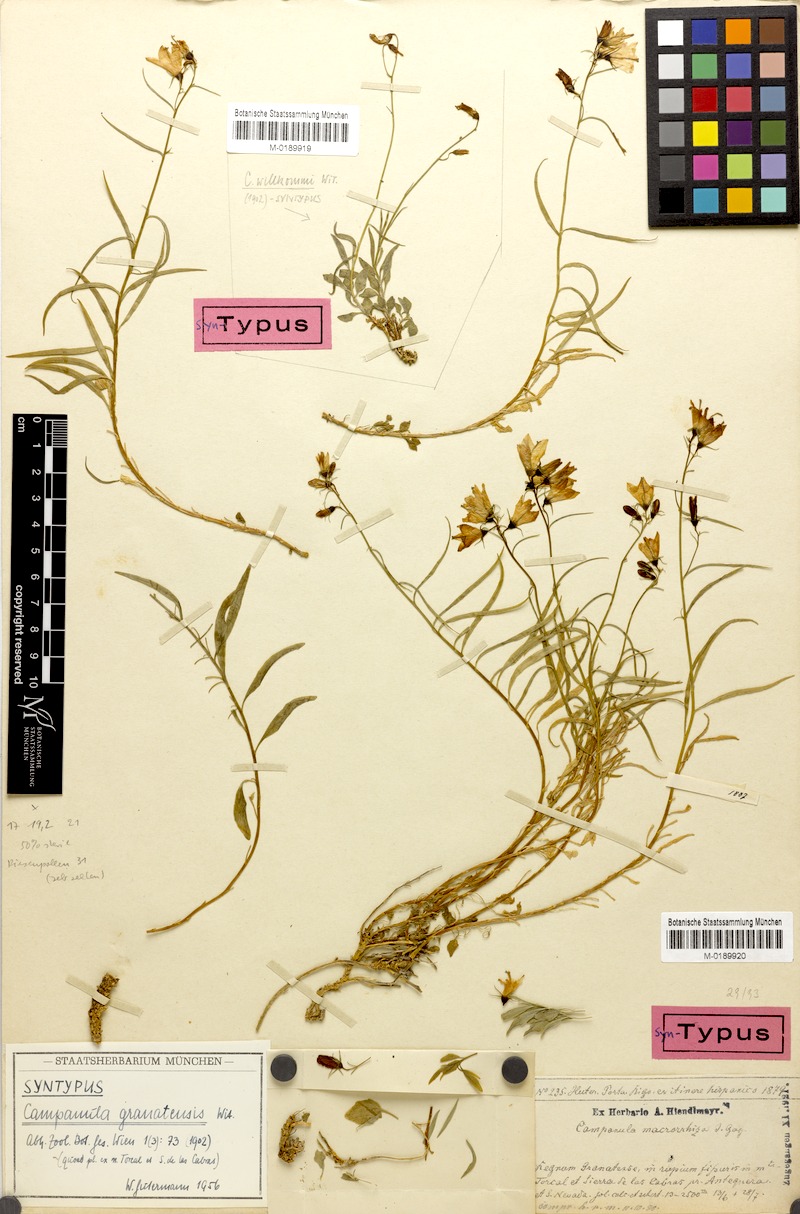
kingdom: Plantae
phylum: Tracheophyta
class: Magnoliopsida
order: Asterales
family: Campanulaceae
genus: Campanula
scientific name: Campanula willkommii
